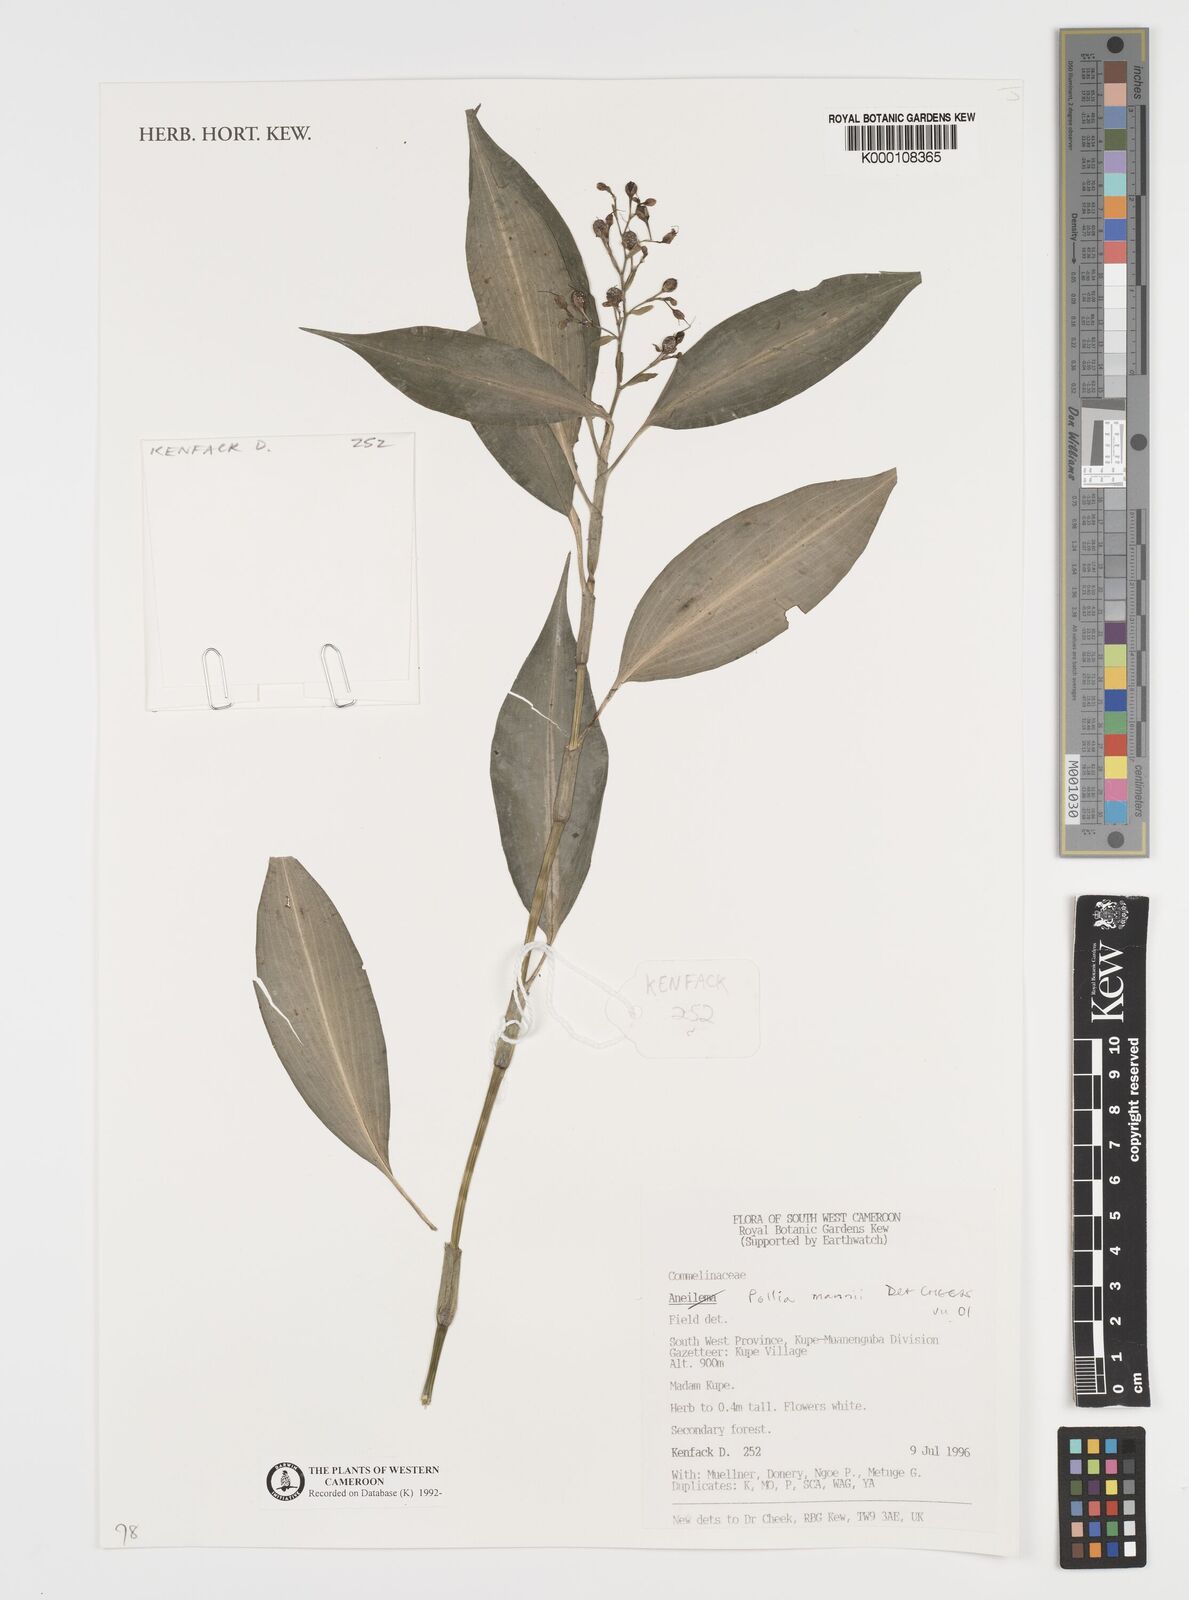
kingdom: Plantae
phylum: Tracheophyta
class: Liliopsida
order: Commelinales
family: Commelinaceae
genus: Pollia
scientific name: Pollia mannii
